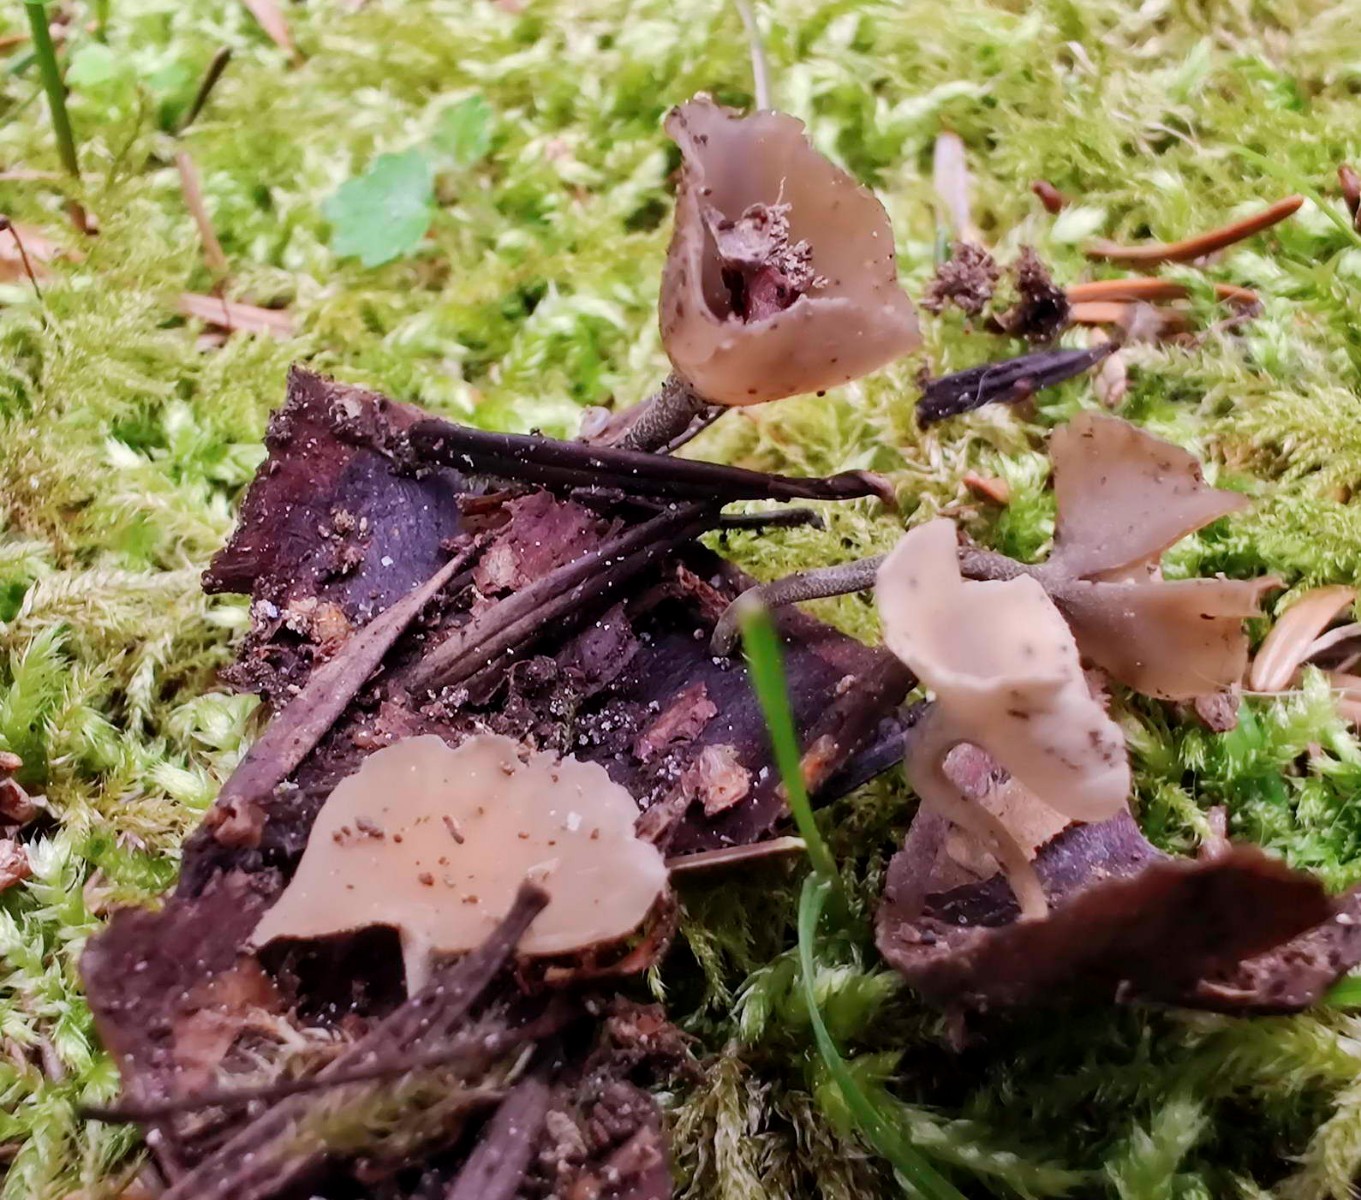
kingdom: Fungi
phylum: Ascomycota
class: Leotiomycetes
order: Helotiales
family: Sclerotiniaceae
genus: Ciboria
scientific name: Ciboria rufofusca
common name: kogleskæl-knoldskive
